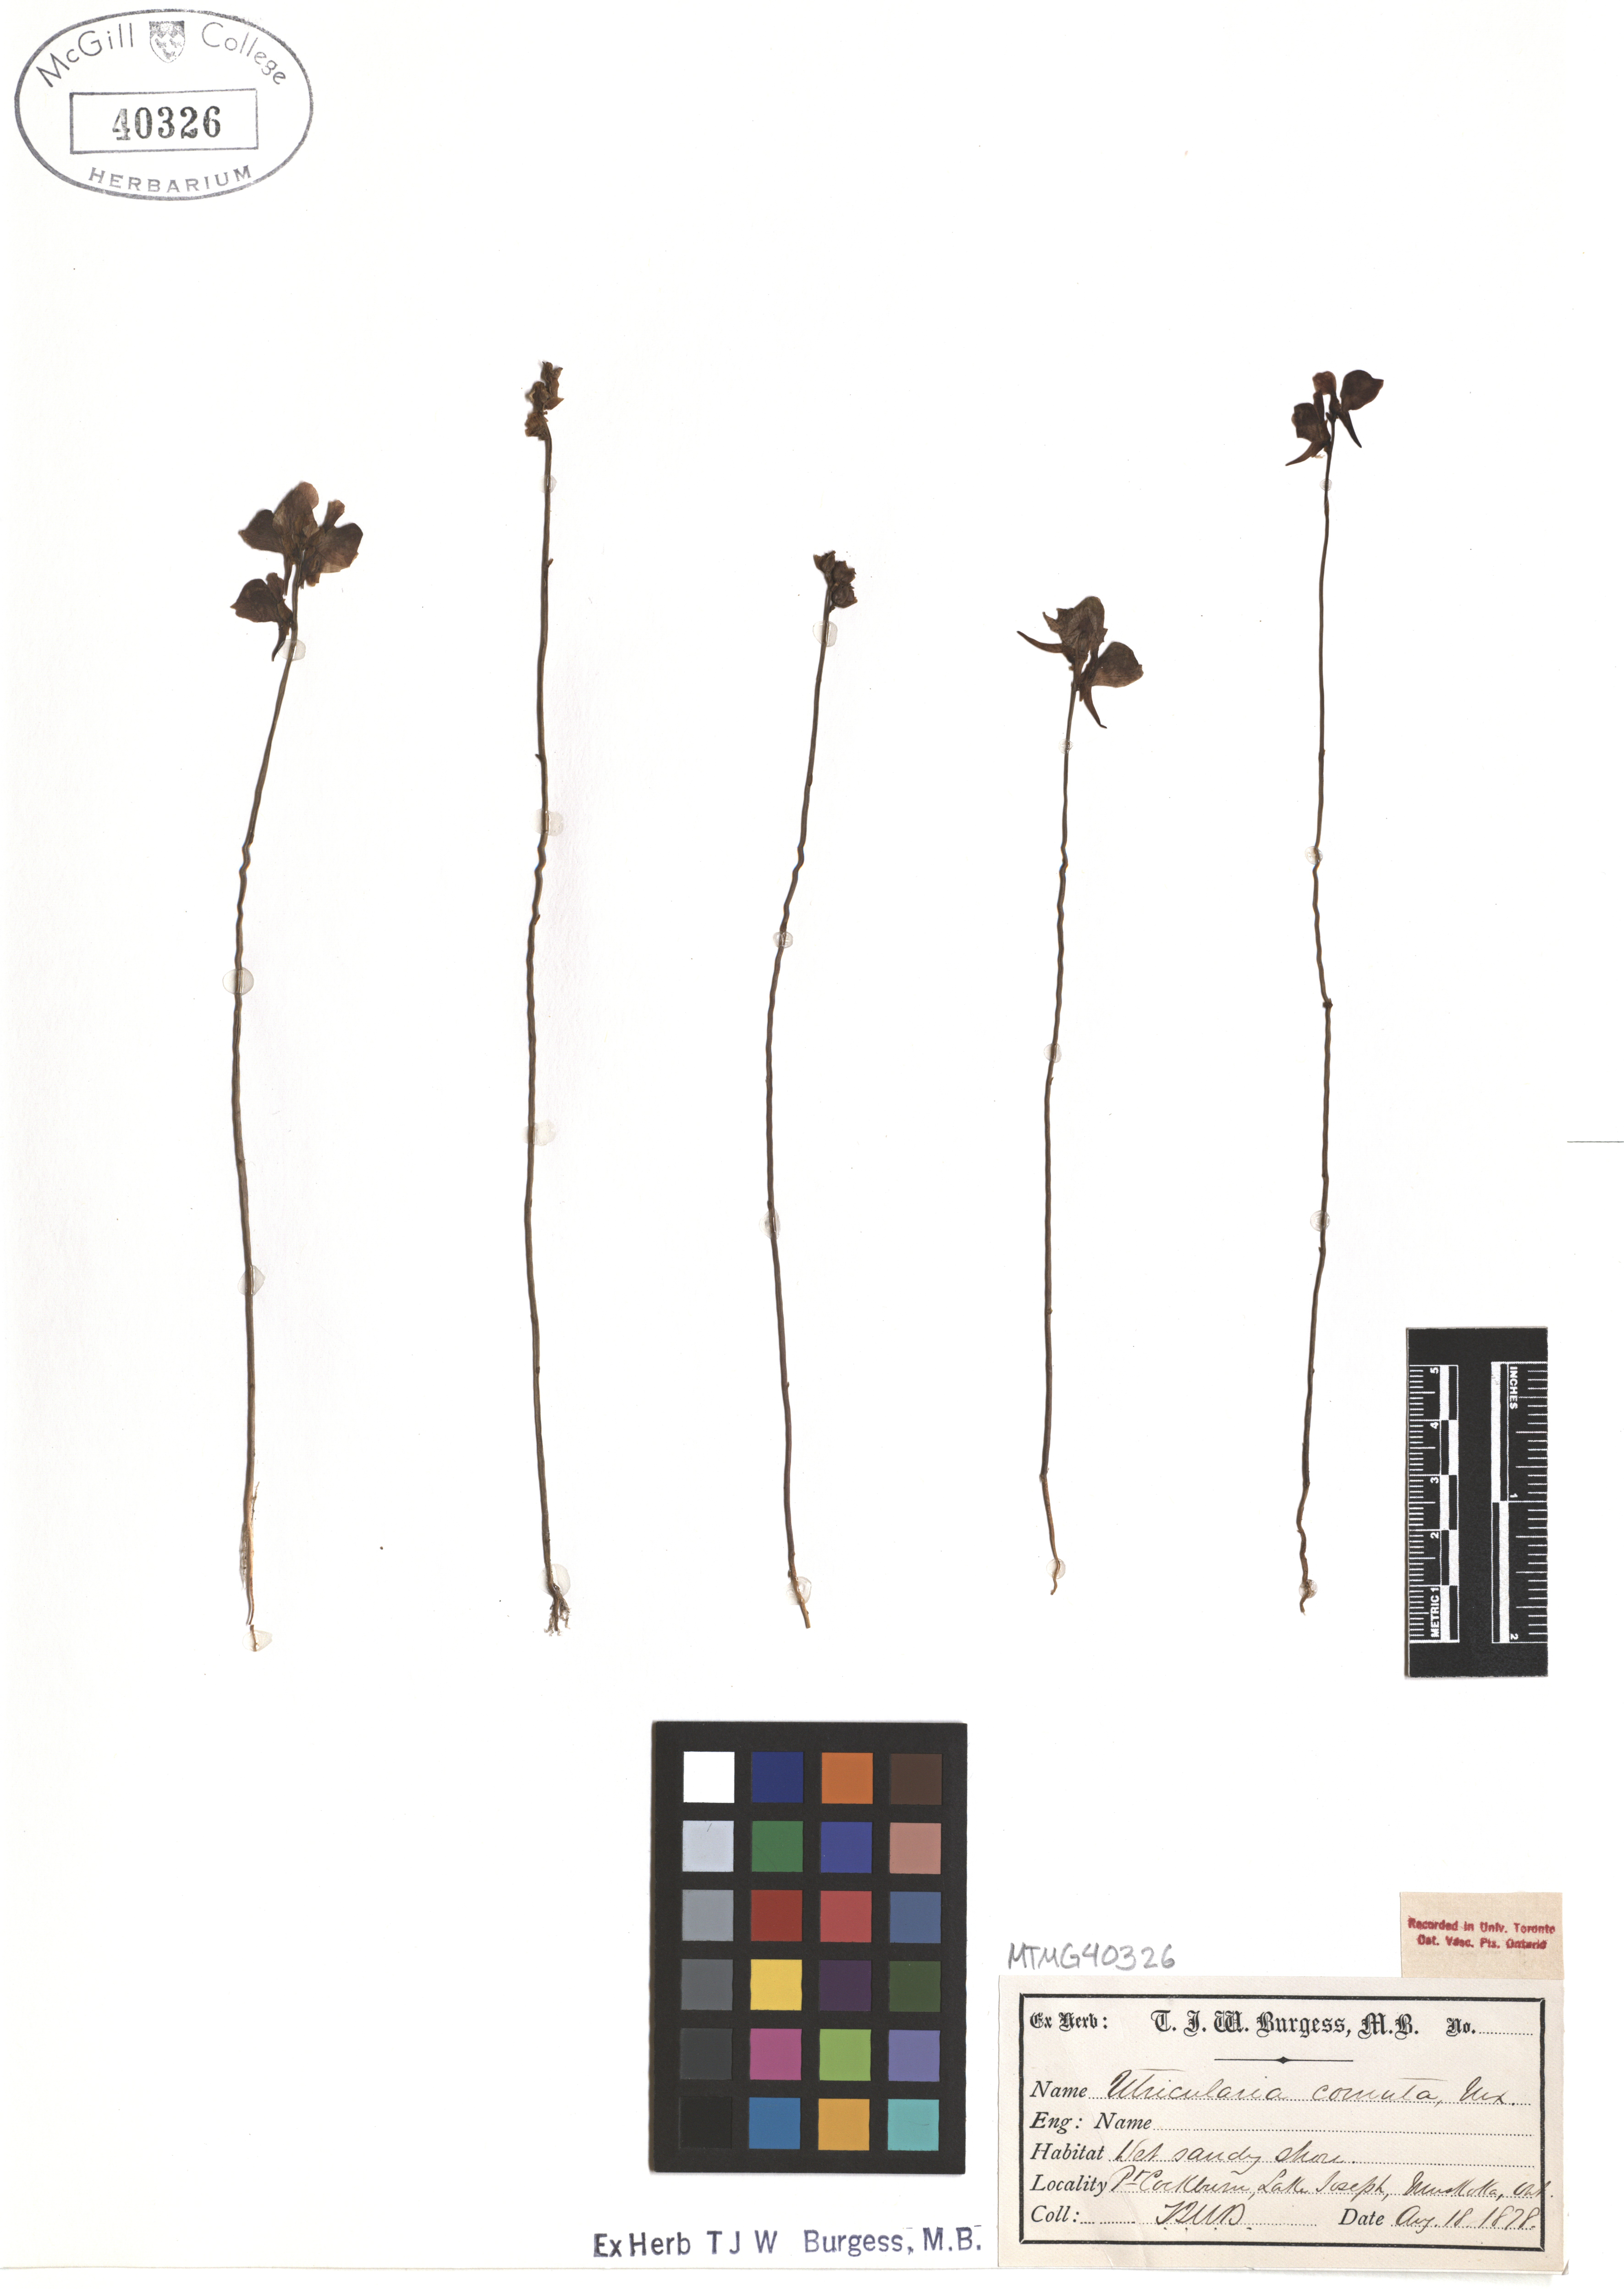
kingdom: Plantae
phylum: Tracheophyta
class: Magnoliopsida
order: Lamiales
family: Lentibulariaceae
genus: Utricularia
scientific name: Utricularia cornuta
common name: Horned bladderwort
